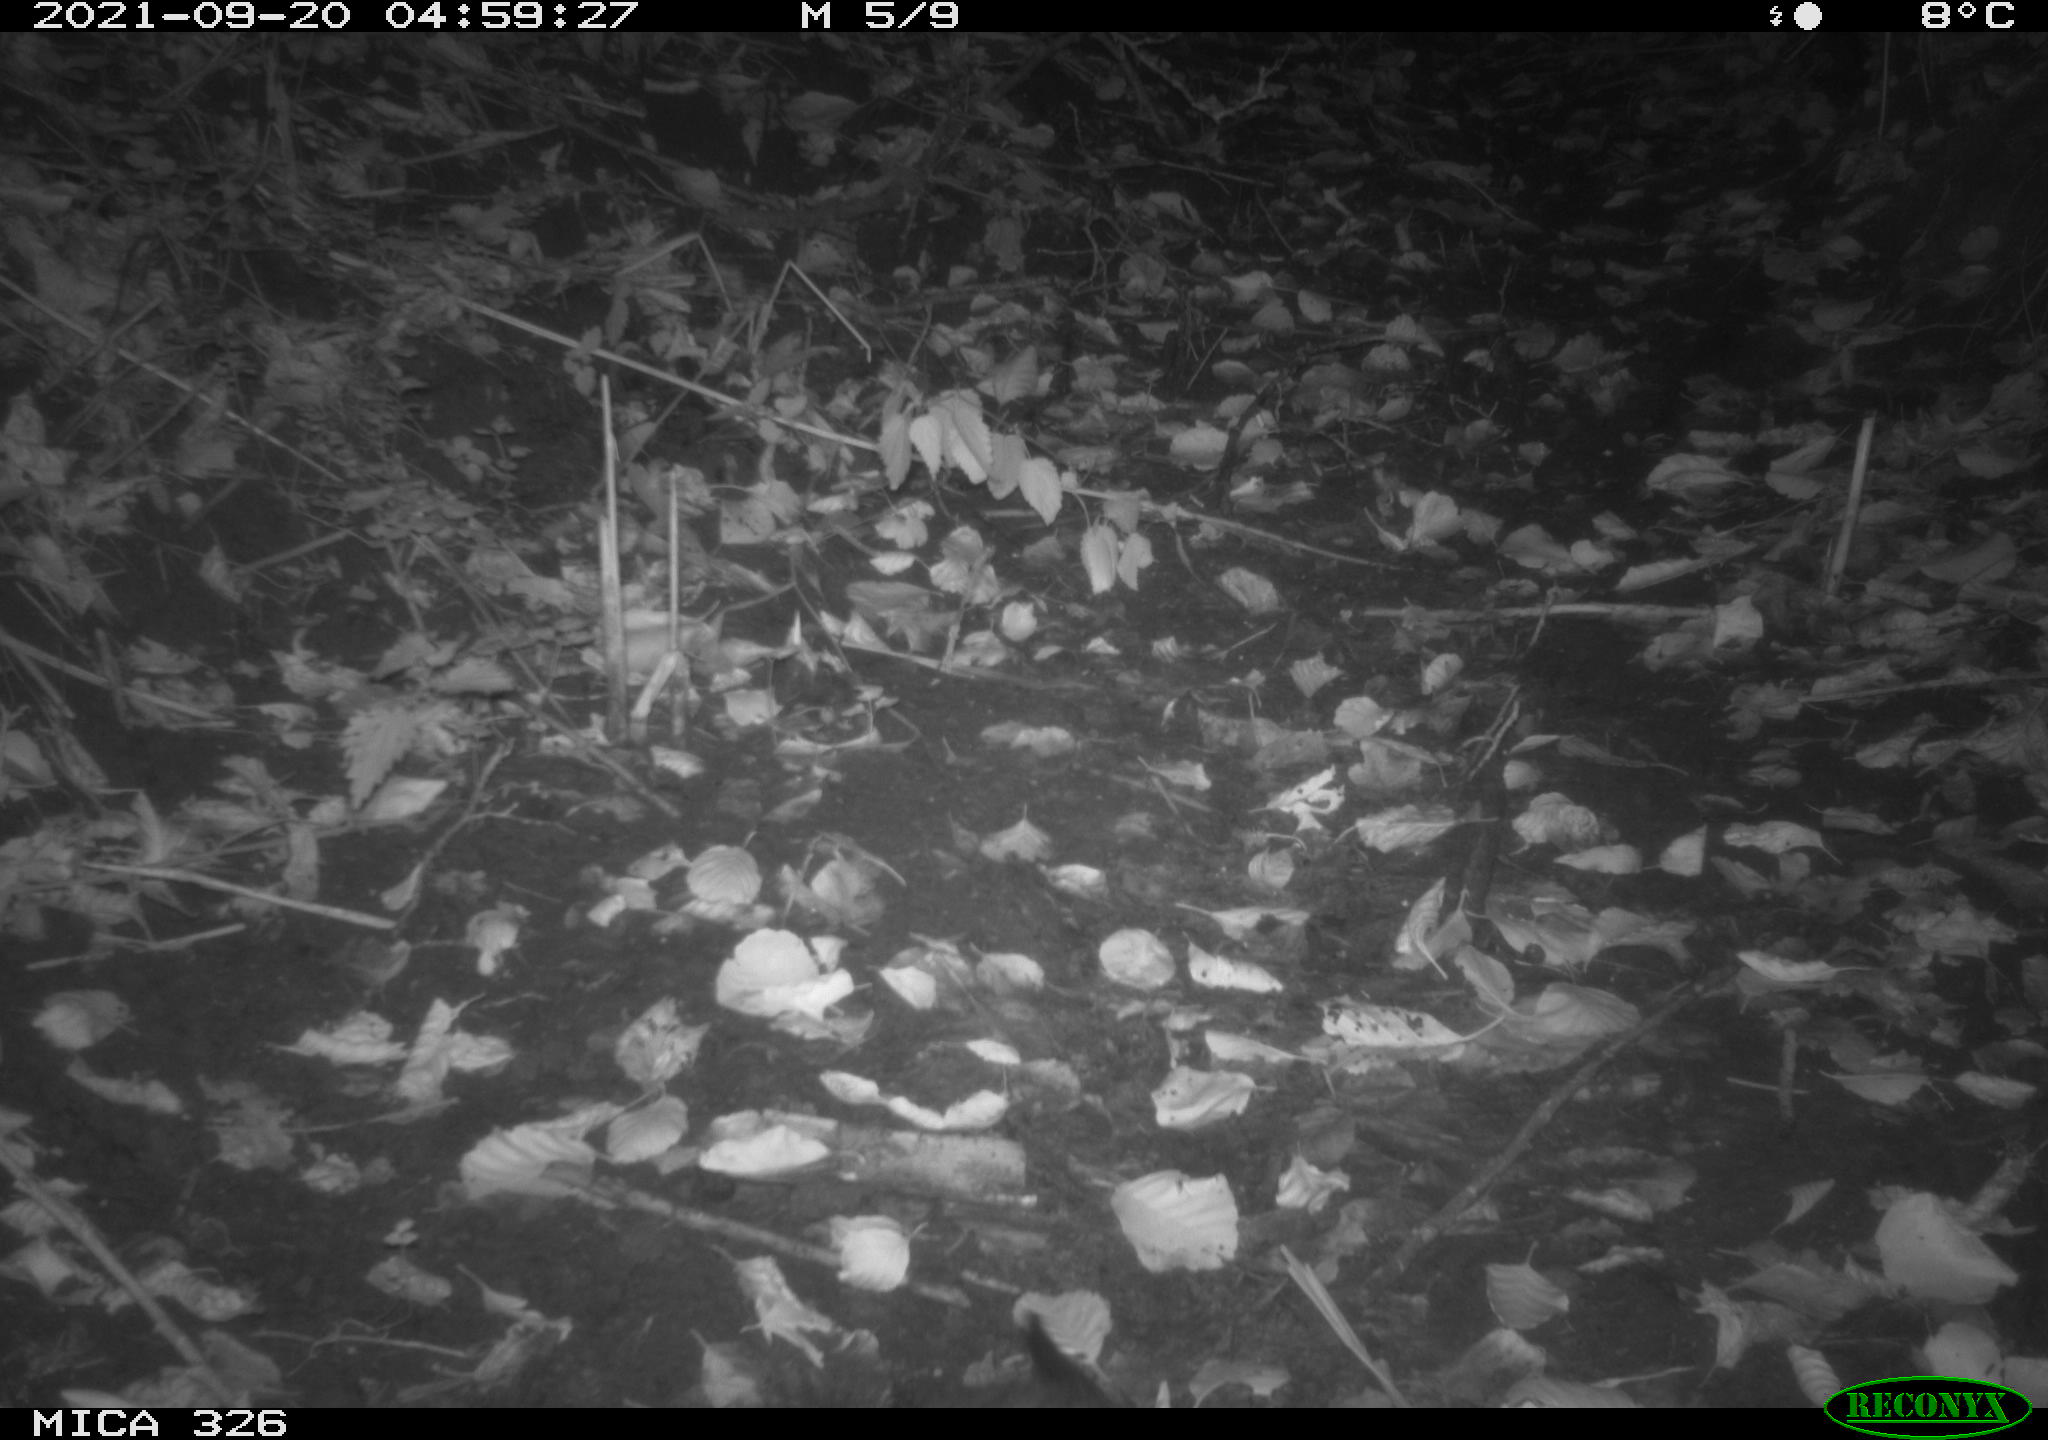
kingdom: Animalia
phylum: Chordata
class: Mammalia
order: Rodentia
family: Myocastoridae
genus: Myocastor
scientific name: Myocastor coypus
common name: Coypu
